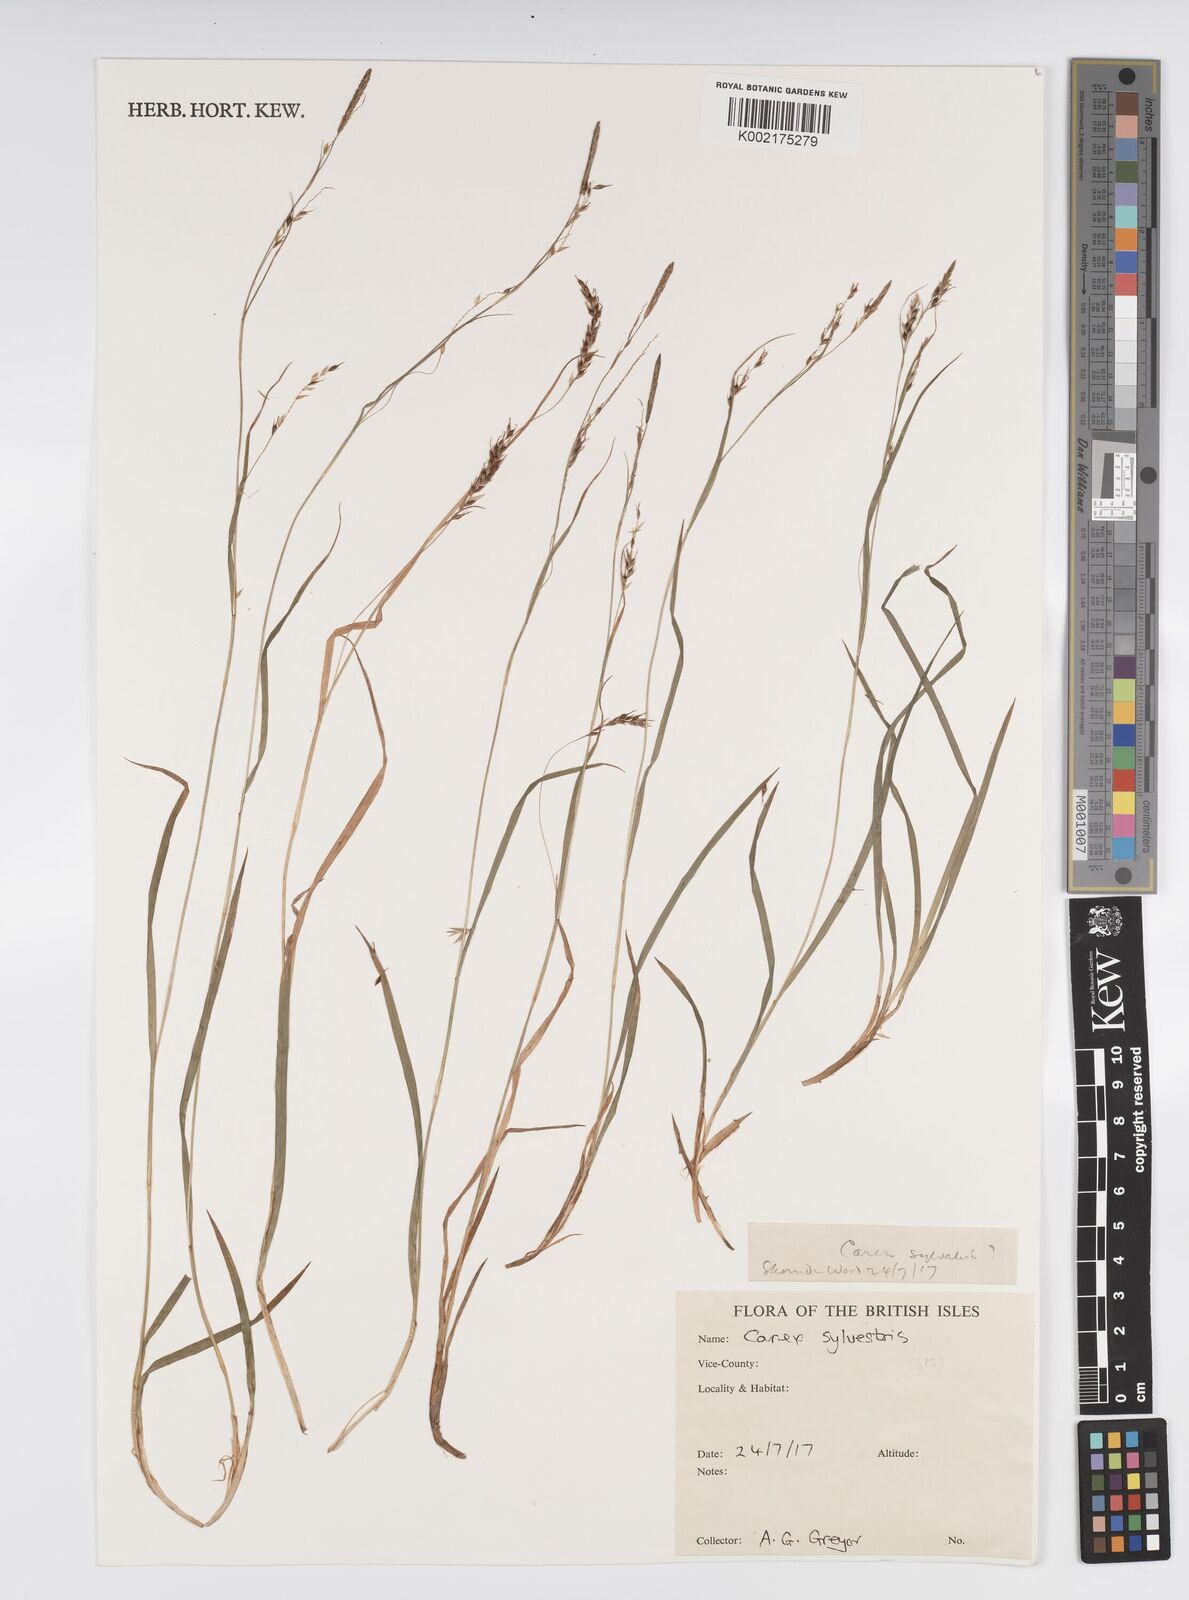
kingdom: Plantae
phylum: Tracheophyta
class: Liliopsida
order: Poales
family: Cyperaceae
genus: Carex
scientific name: Carex sylvatica
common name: Wood-sedge
